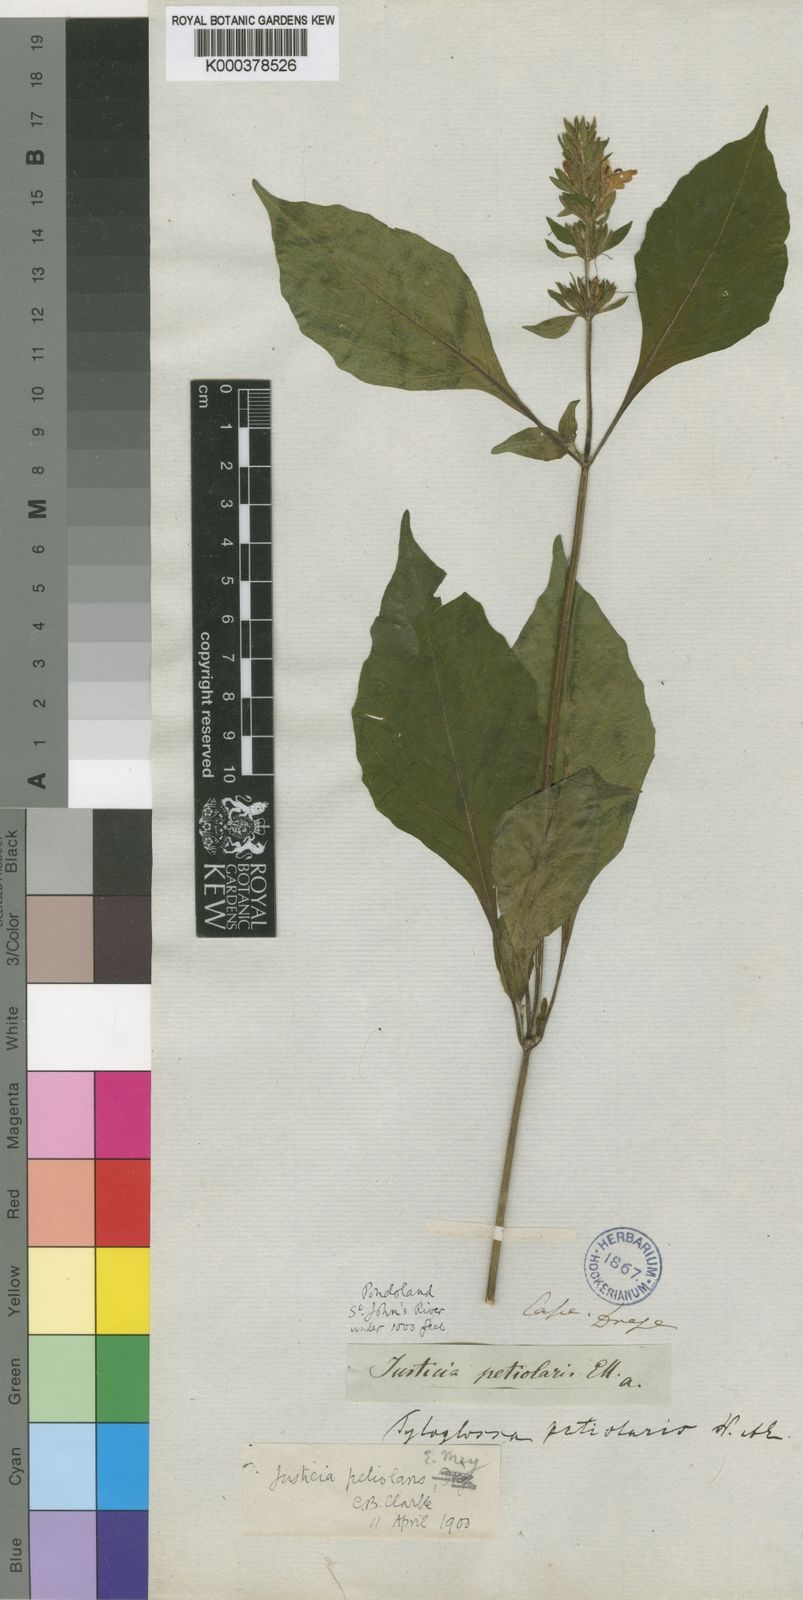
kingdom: Plantae
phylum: Tracheophyta
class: Magnoliopsida
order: Lamiales
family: Acanthaceae
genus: Justicia
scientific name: Justicia
